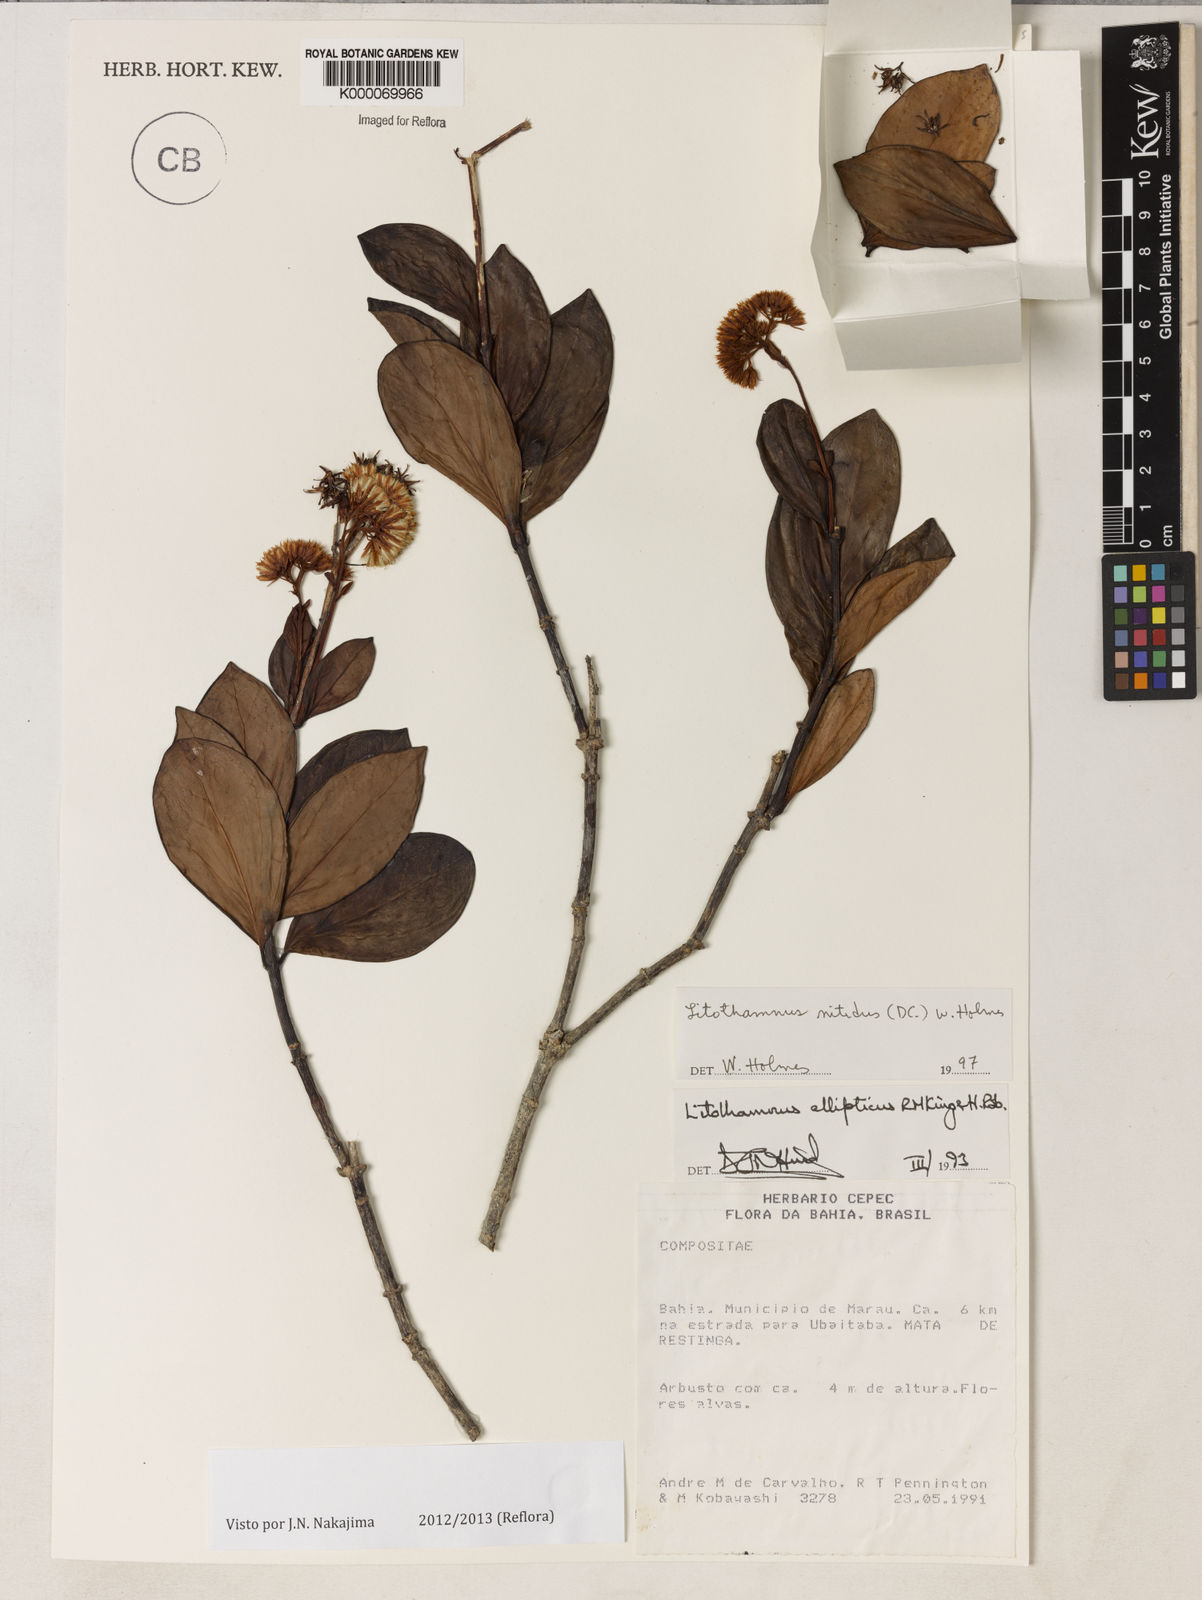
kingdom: Plantae
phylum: Tracheophyta
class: Magnoliopsida
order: Asterales
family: Asteraceae
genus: Litothamnus
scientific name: Litothamnus nitidus
